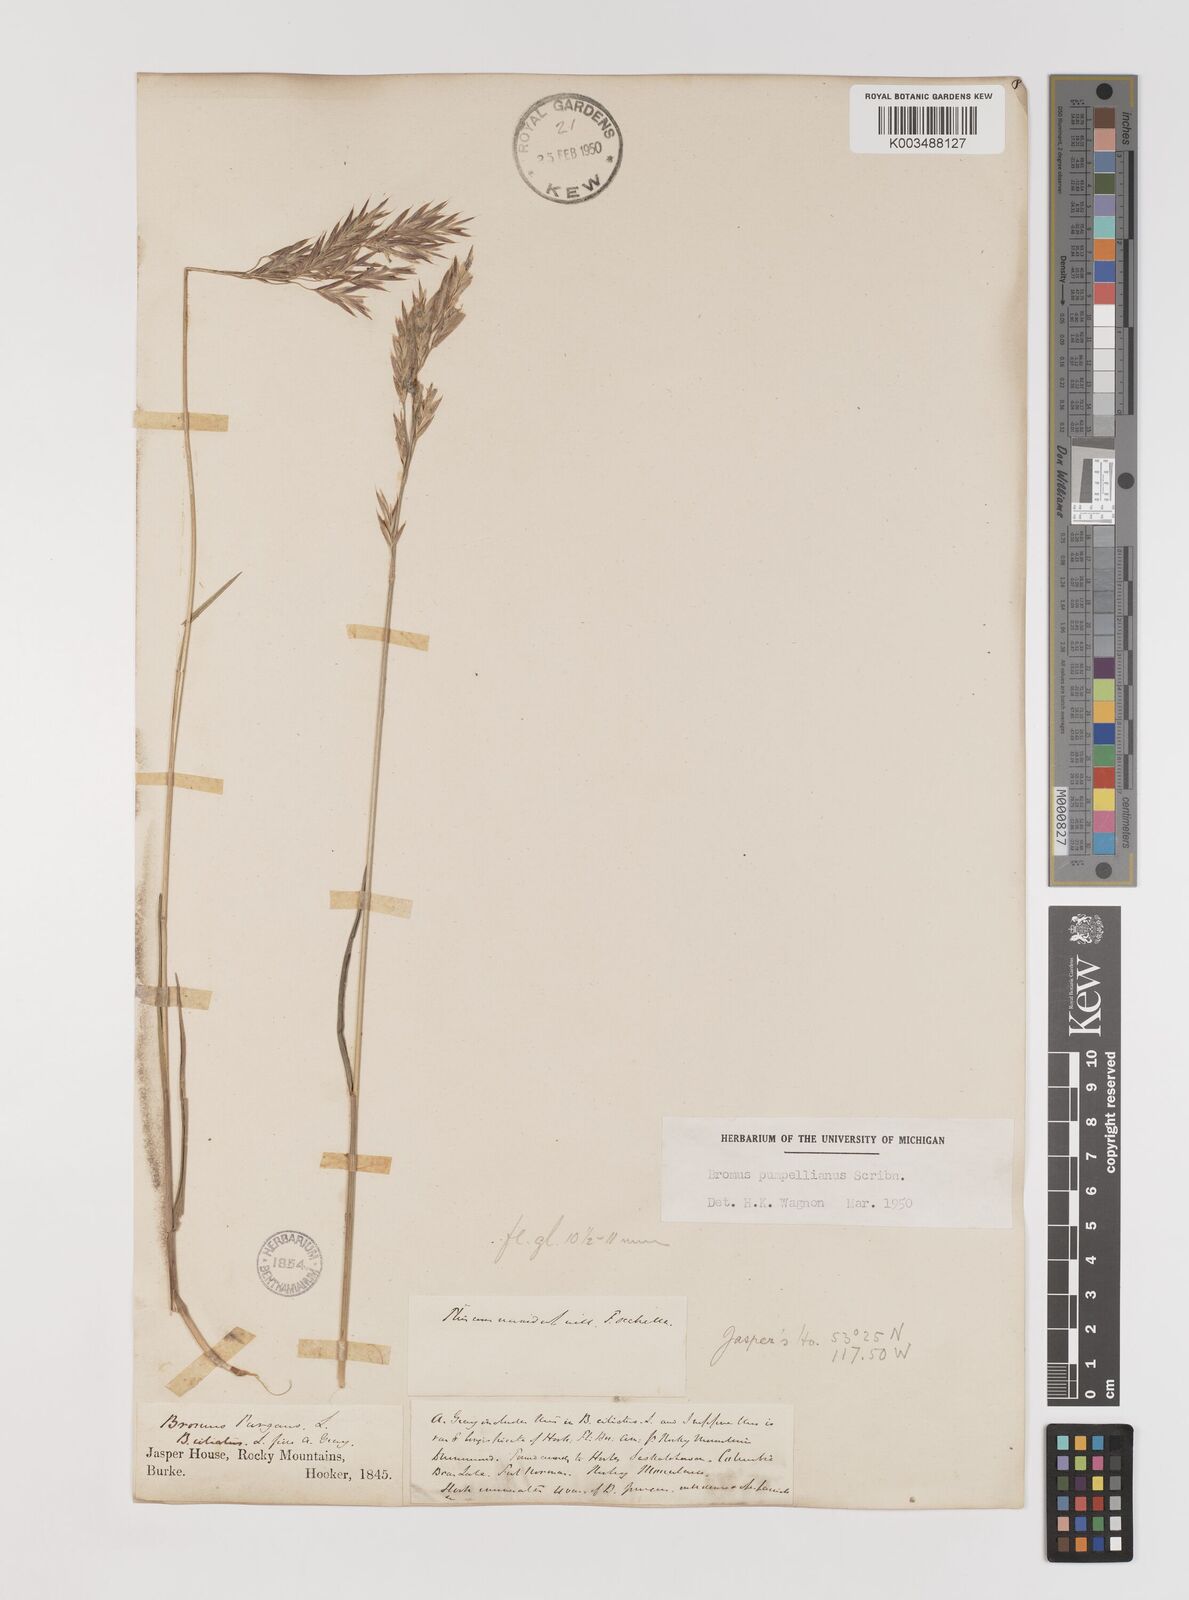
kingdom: Plantae
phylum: Tracheophyta
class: Liliopsida
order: Poales
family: Poaceae
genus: Bromus
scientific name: Bromus pumpellianus
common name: Pumpelly's brome
